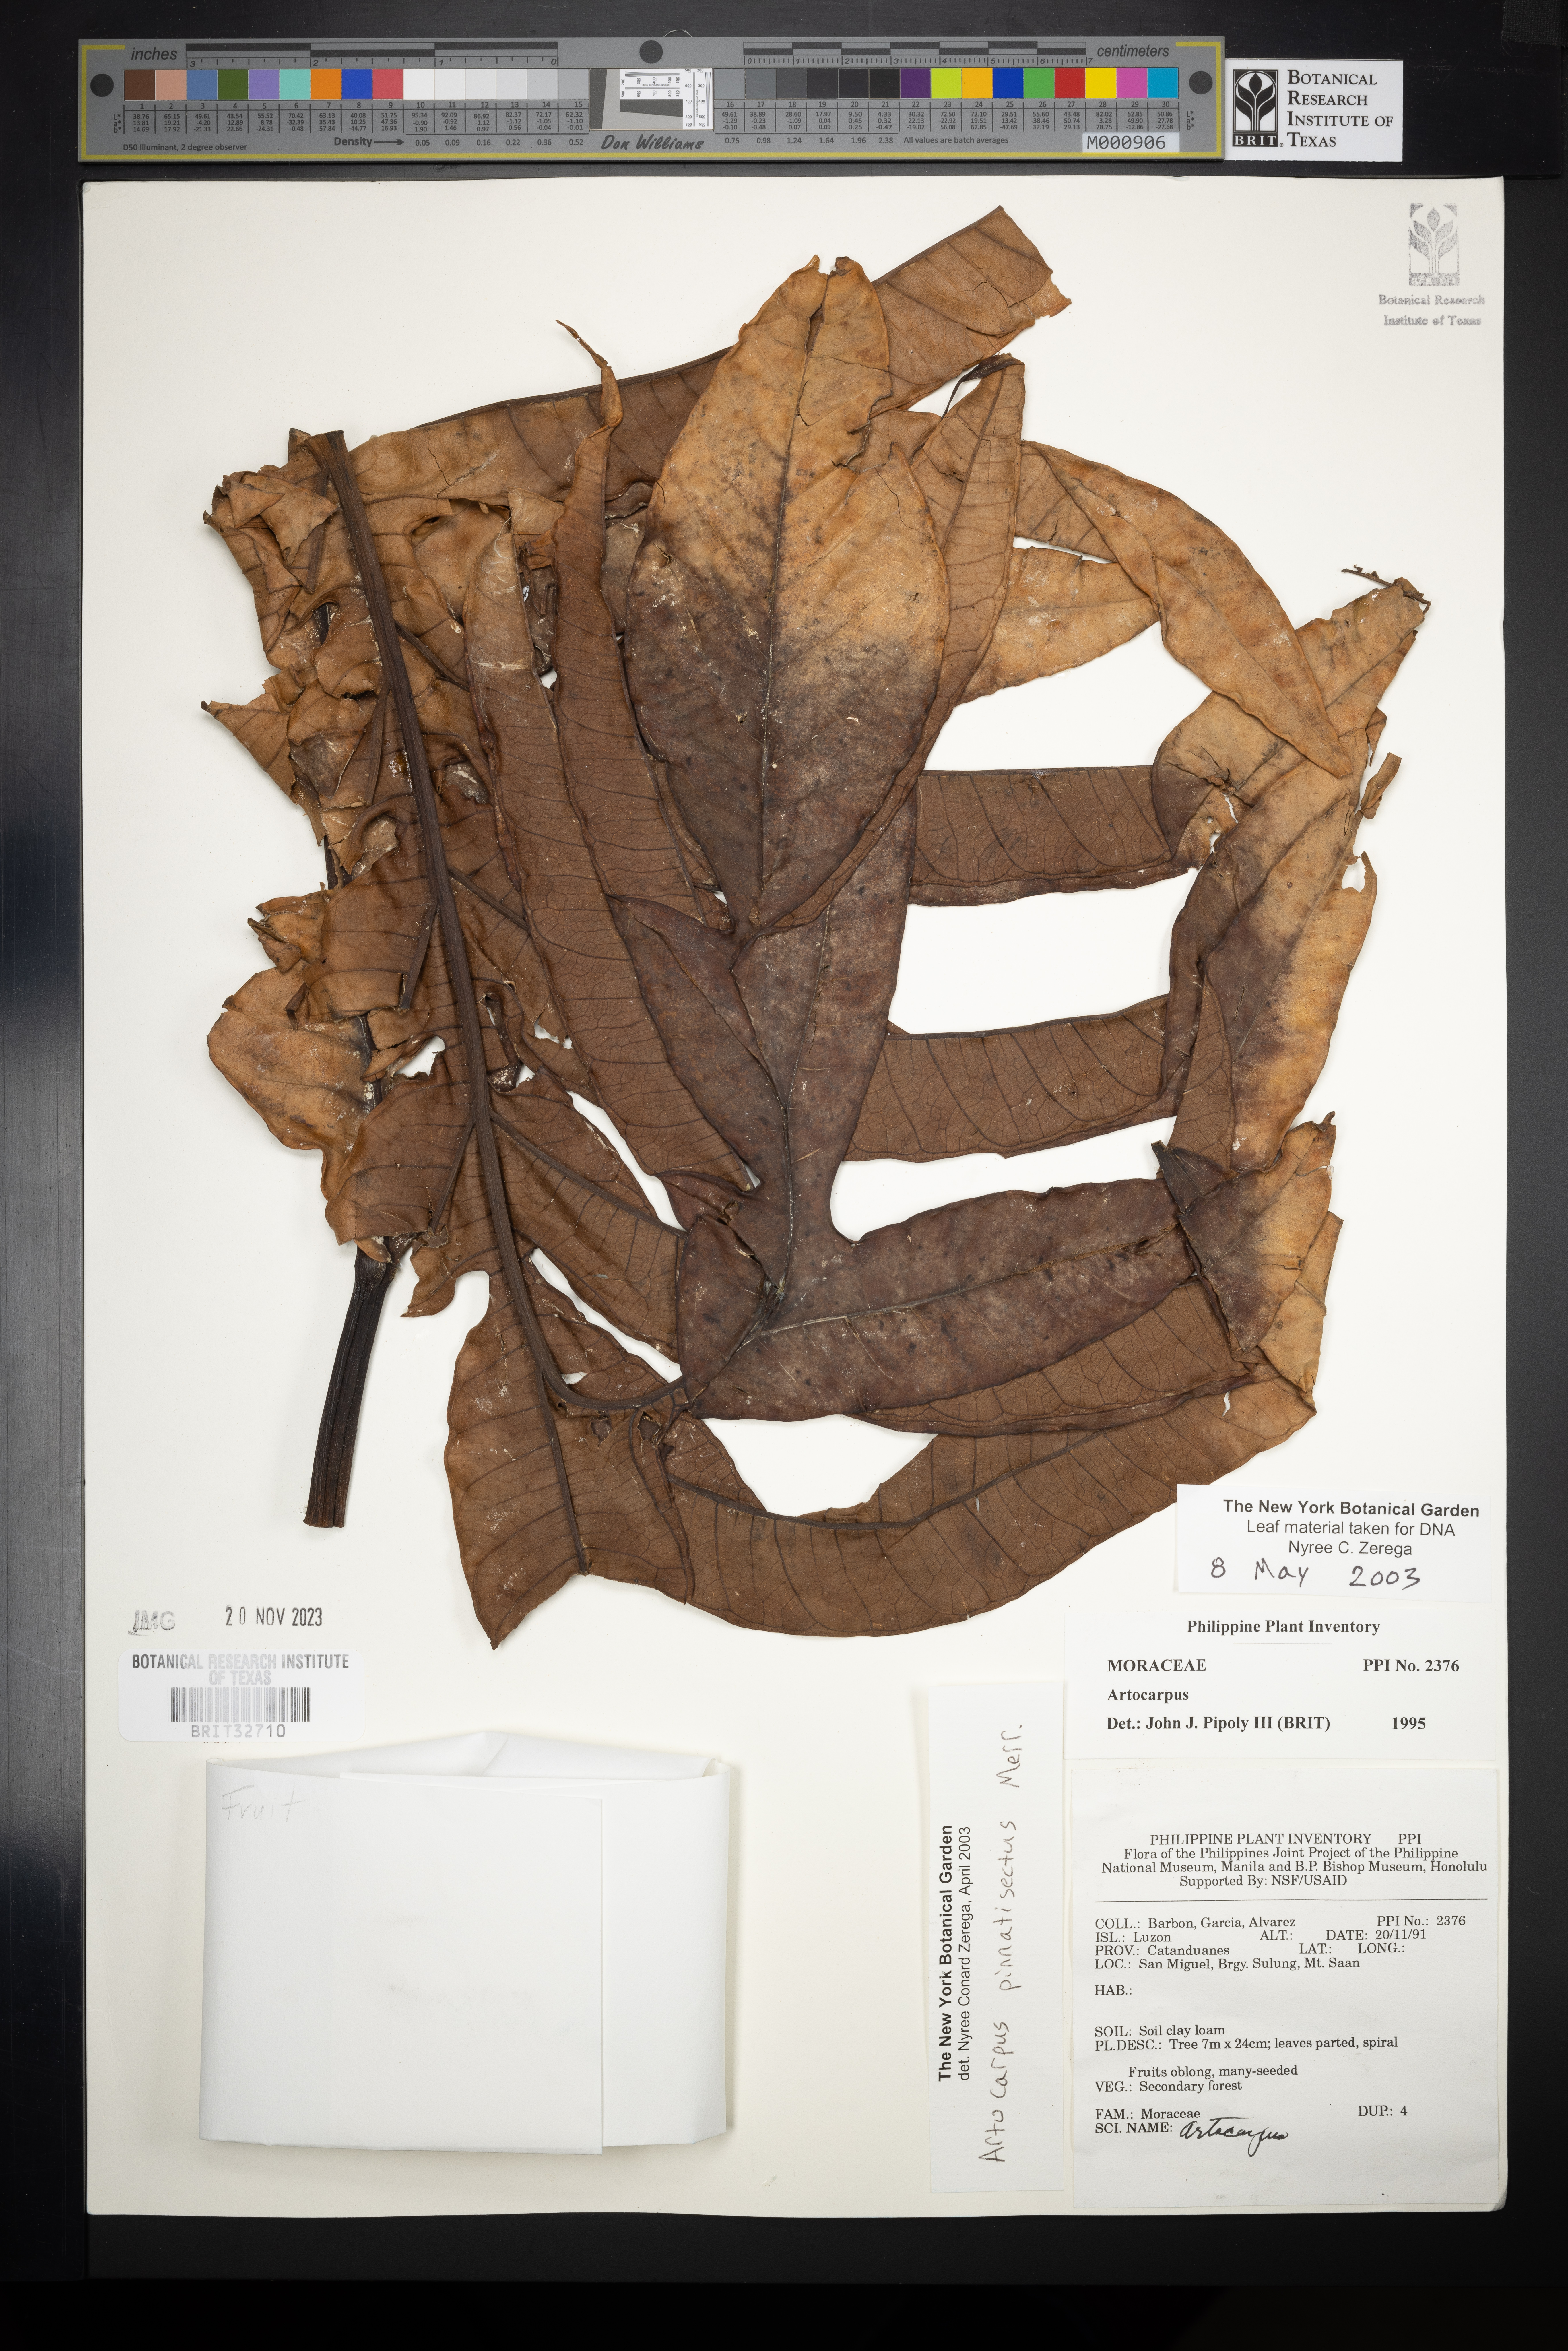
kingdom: Plantae
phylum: Tracheophyta
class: Magnoliopsida
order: Rosales
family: Moraceae
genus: Artocarpus
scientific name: Artocarpus altilis
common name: Breadfruit
